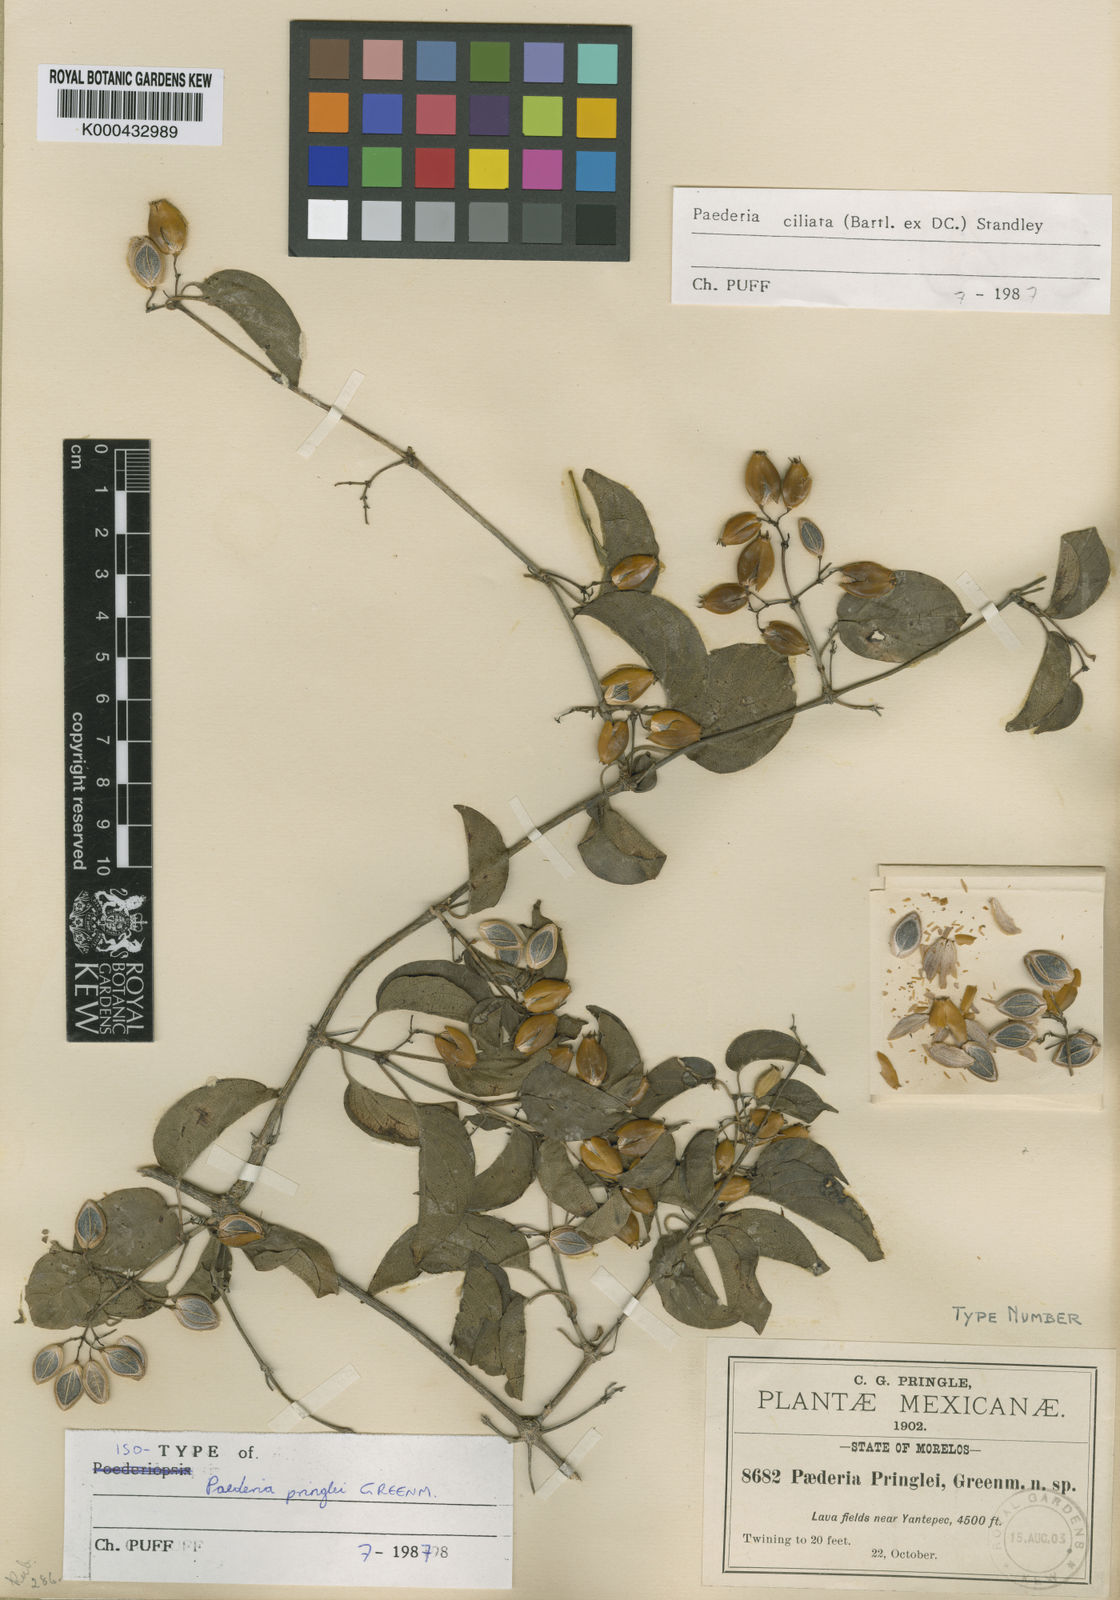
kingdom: Plantae
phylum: Tracheophyta
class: Magnoliopsida
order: Gentianales
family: Rubiaceae
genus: Paederia
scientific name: Paederia ciliata
